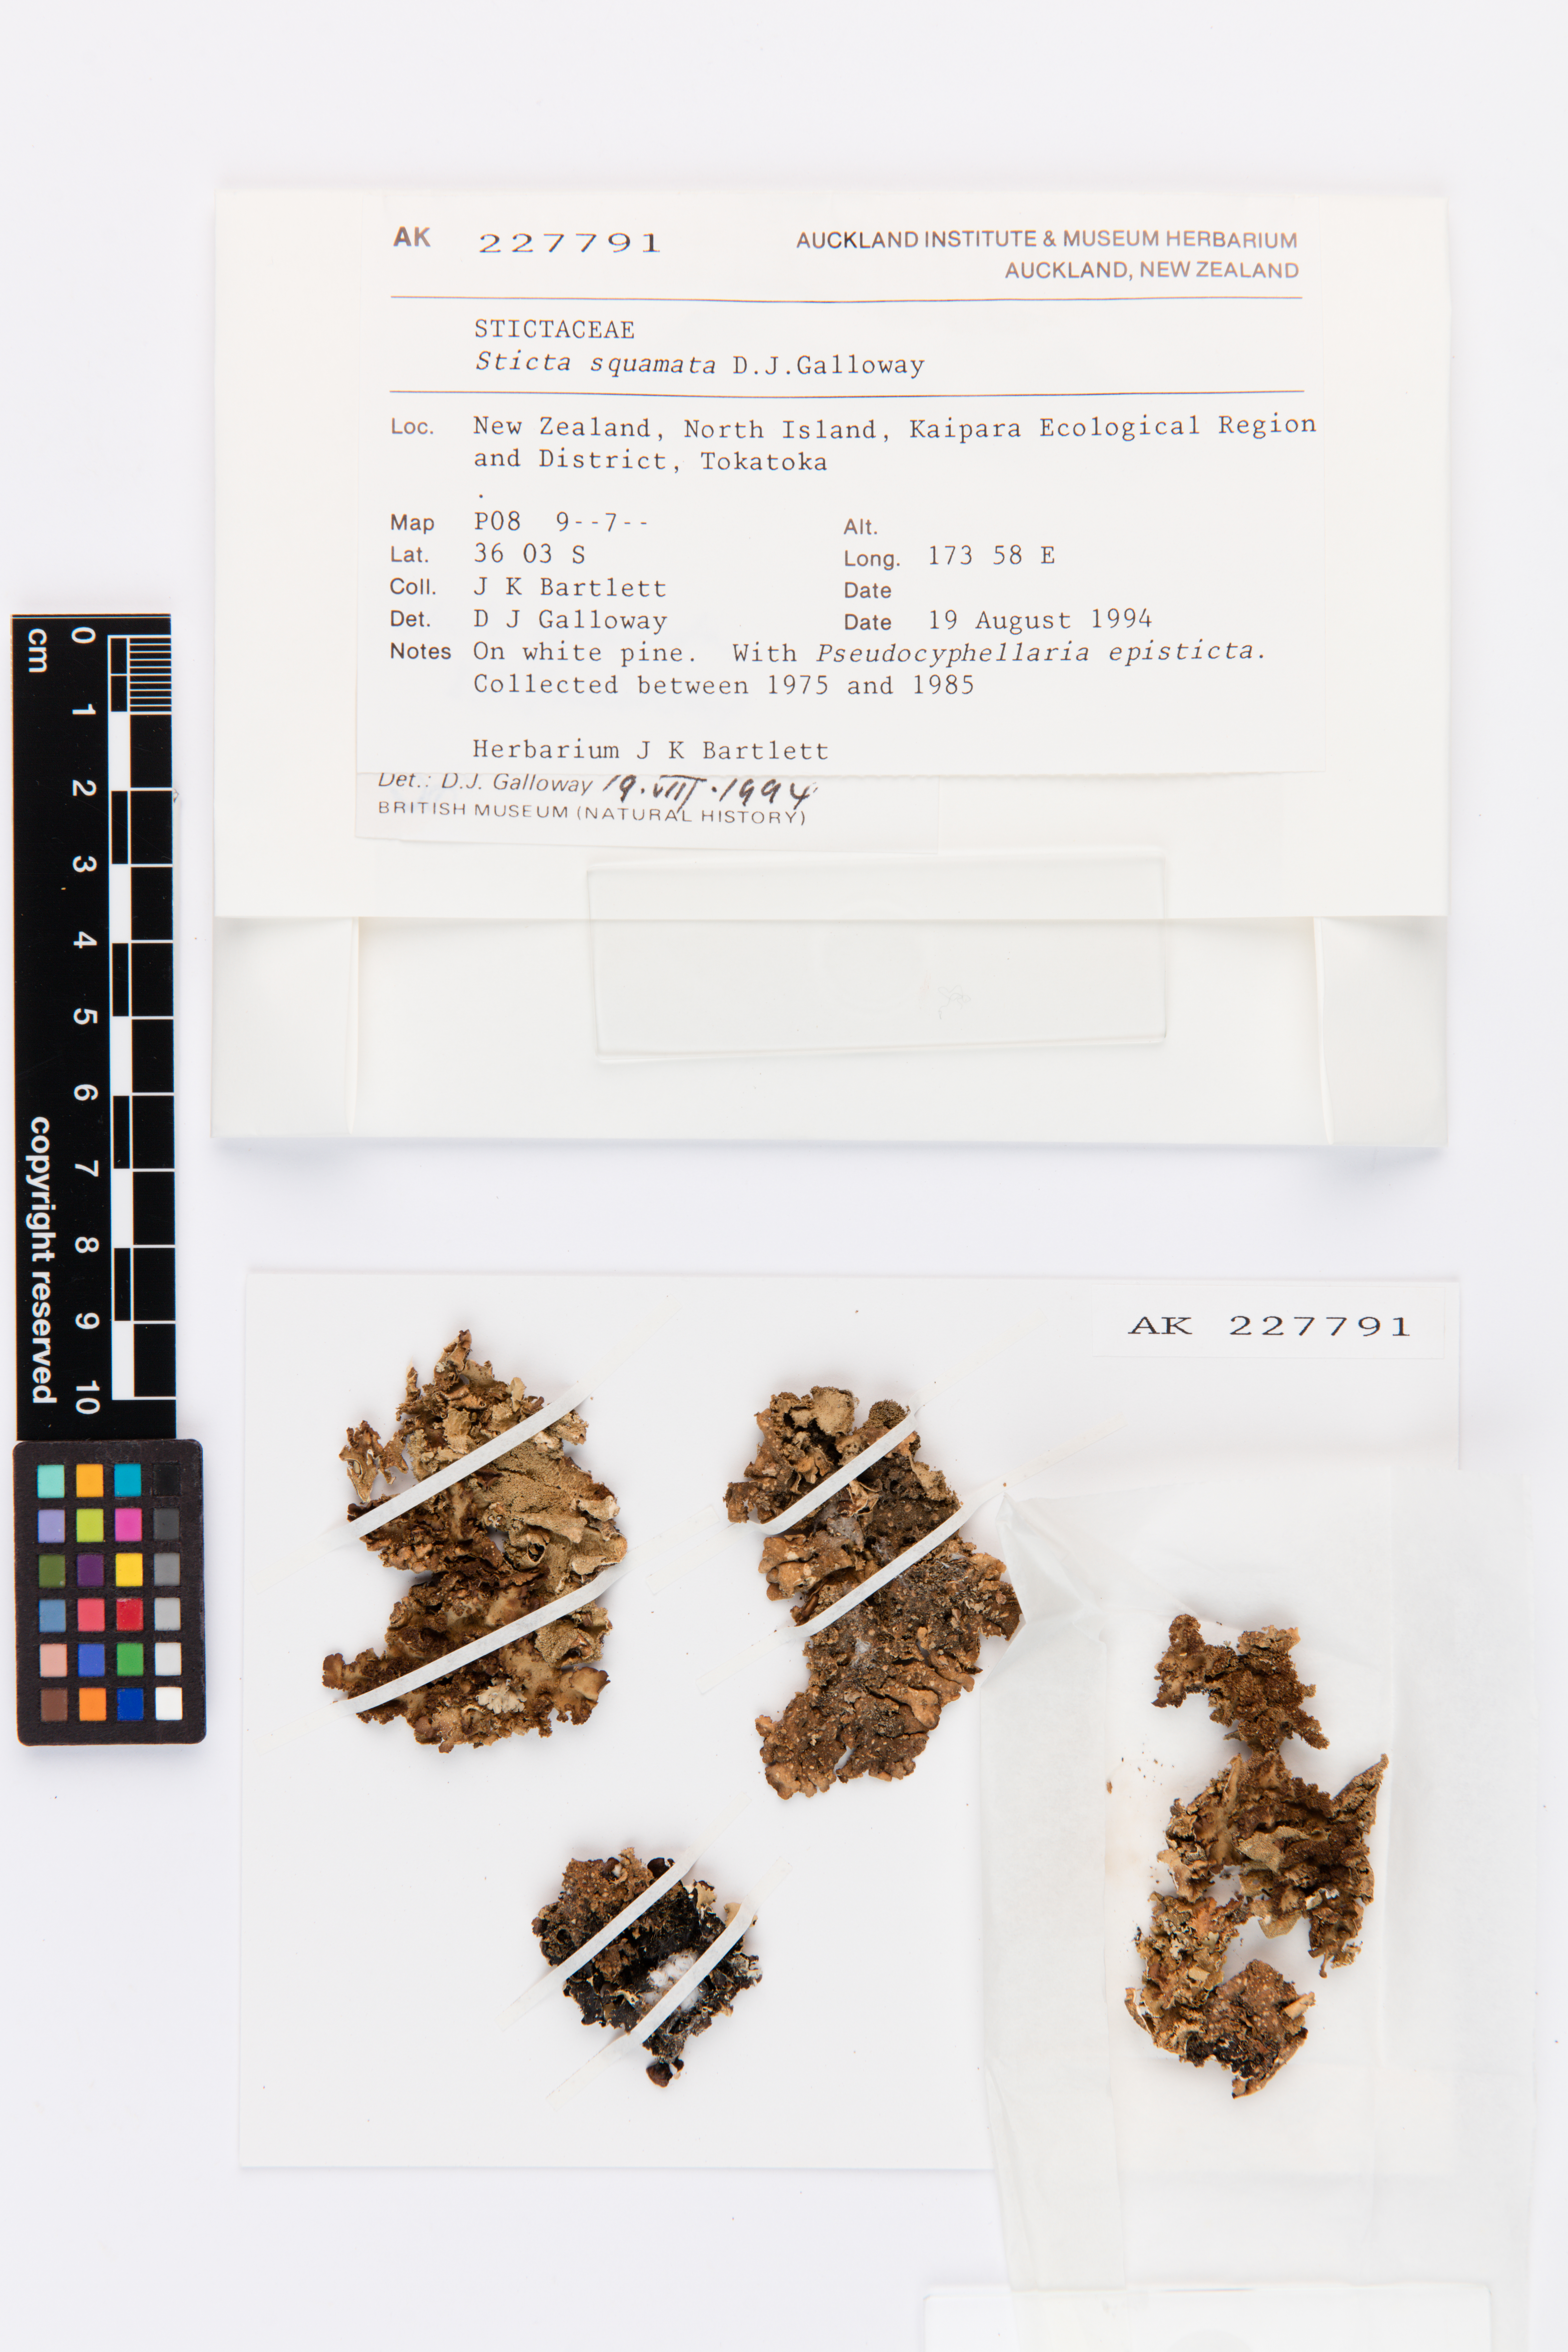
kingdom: Fungi
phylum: Ascomycota
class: Lecanoromycetes
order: Peltigerales
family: Lobariaceae
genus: Sticta
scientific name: Sticta squamata
